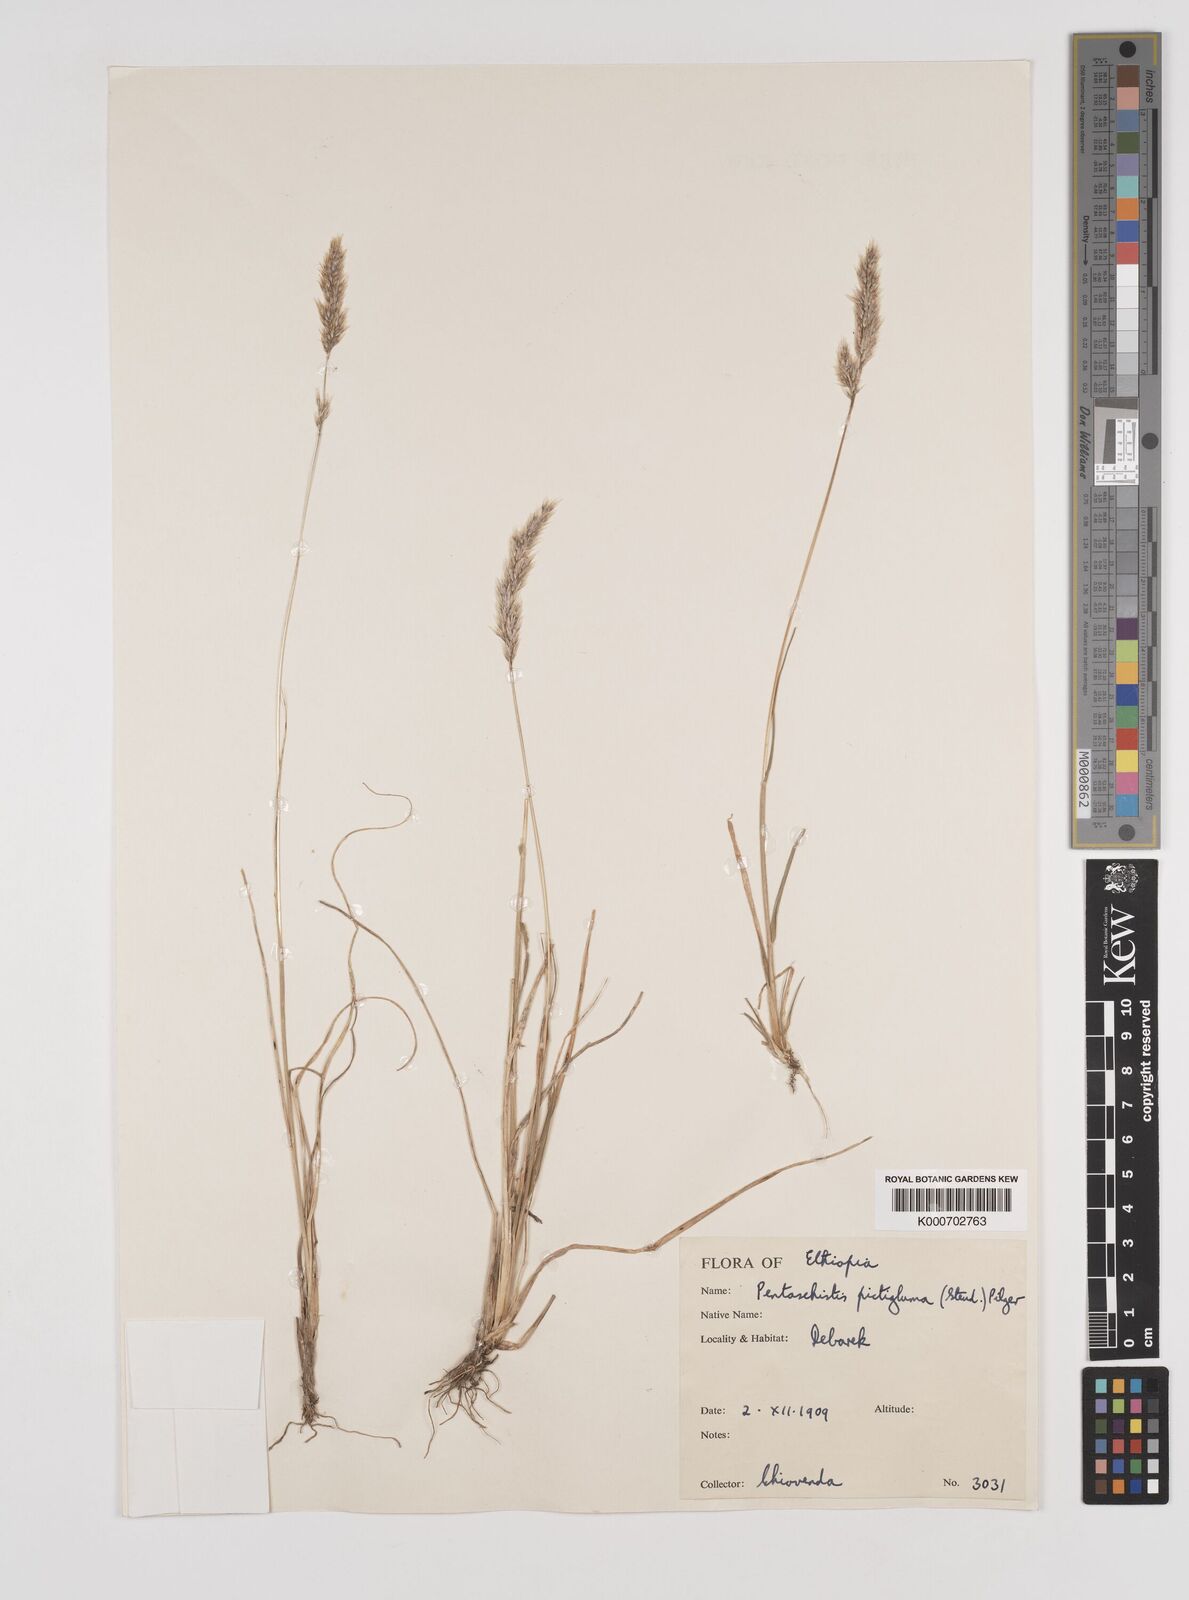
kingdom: Plantae
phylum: Tracheophyta
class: Liliopsida
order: Poales
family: Poaceae
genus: Pentameris
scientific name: Pentameris pictigluma
